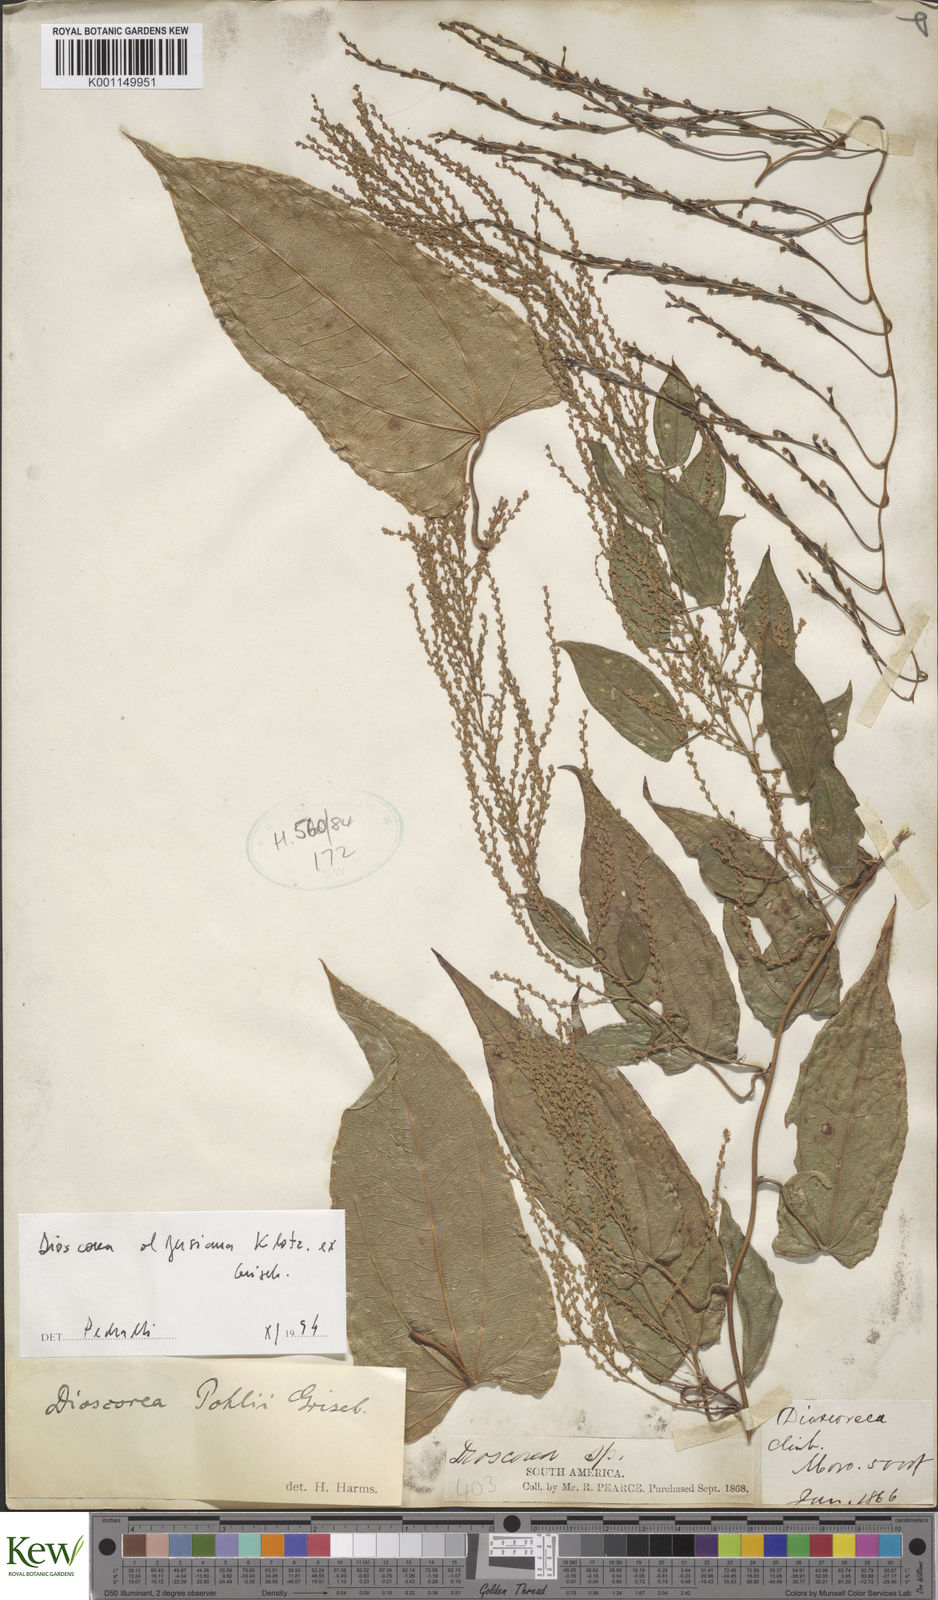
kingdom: Plantae
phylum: Tracheophyta
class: Liliopsida
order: Dioscoreales
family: Dioscoreaceae
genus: Dioscorea
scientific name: Dioscorea pohlii
